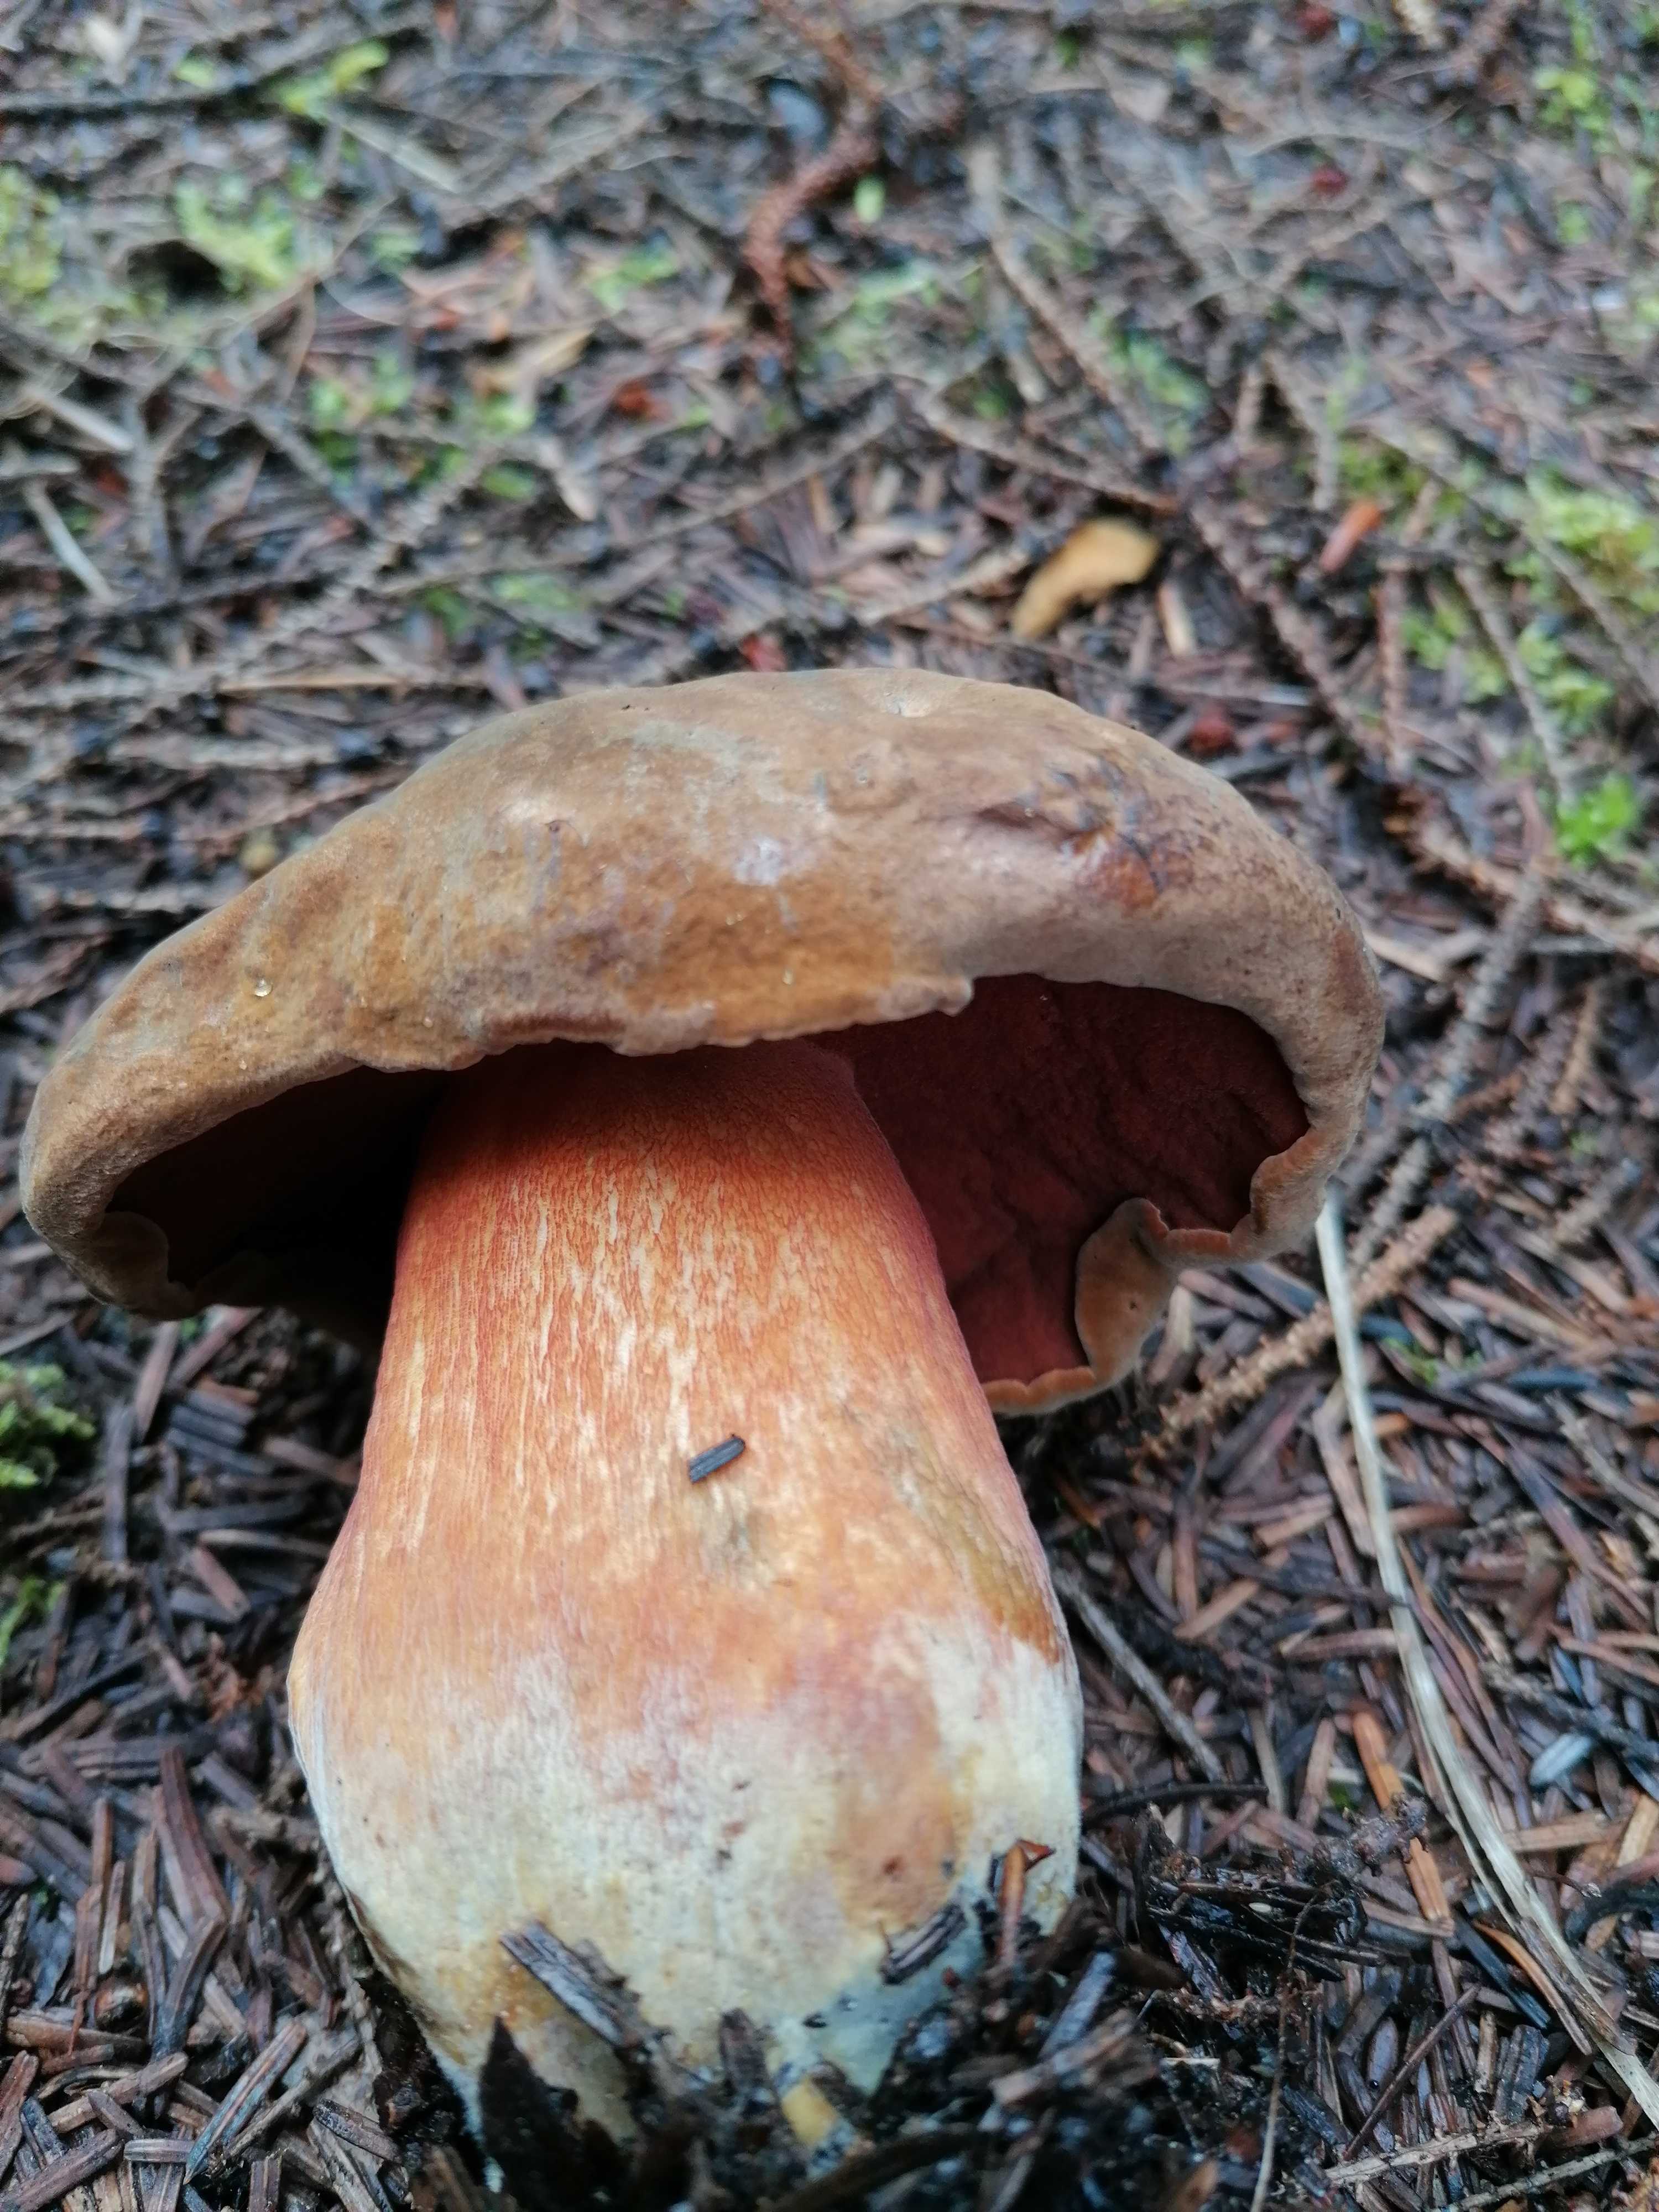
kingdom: Fungi
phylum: Basidiomycota
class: Agaricomycetes
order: Boletales
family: Boletaceae
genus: Neoboletus
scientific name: Neoboletus erythropus
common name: punktstokket indigorørhat
